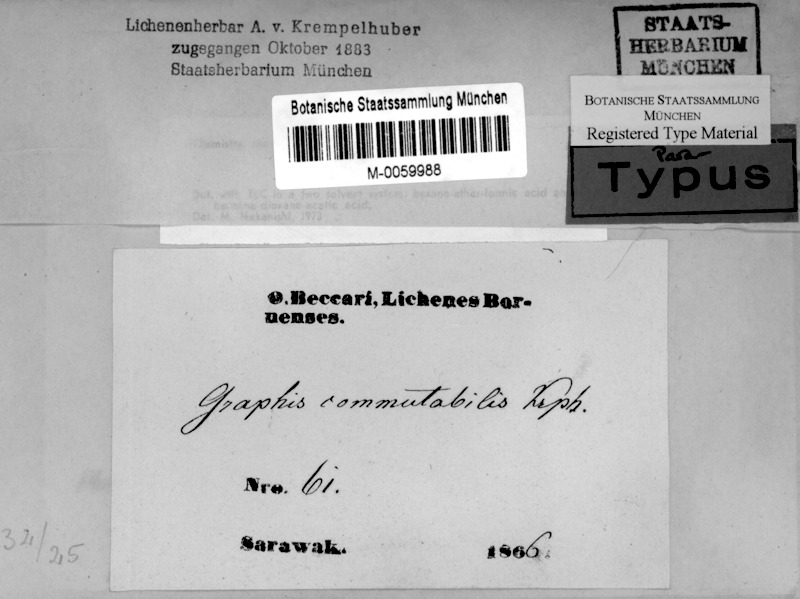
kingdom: Fungi
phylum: Ascomycota
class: Lecanoromycetes
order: Ostropales
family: Graphidaceae
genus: Platygramme
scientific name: Platygramme commutabilis
